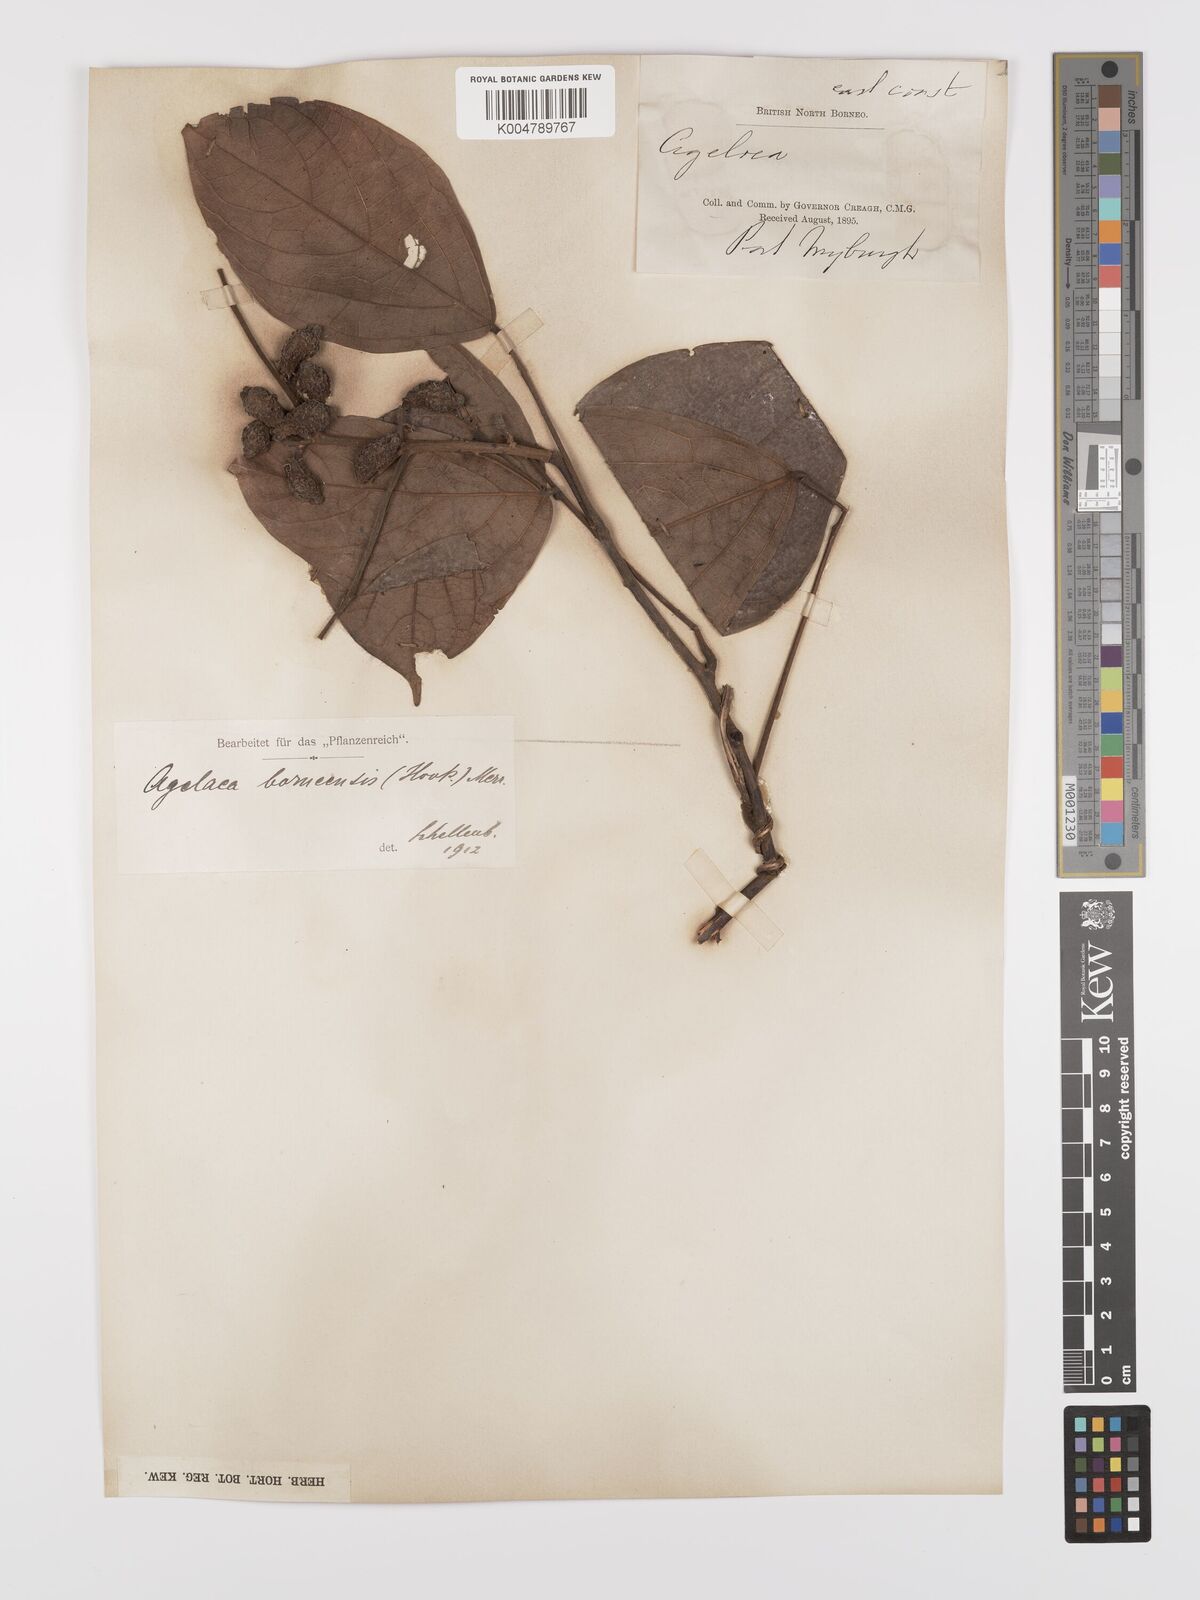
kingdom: Plantae
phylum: Tracheophyta
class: Magnoliopsida
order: Oxalidales
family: Connaraceae
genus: Agelaea
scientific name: Agelaea borneensis
